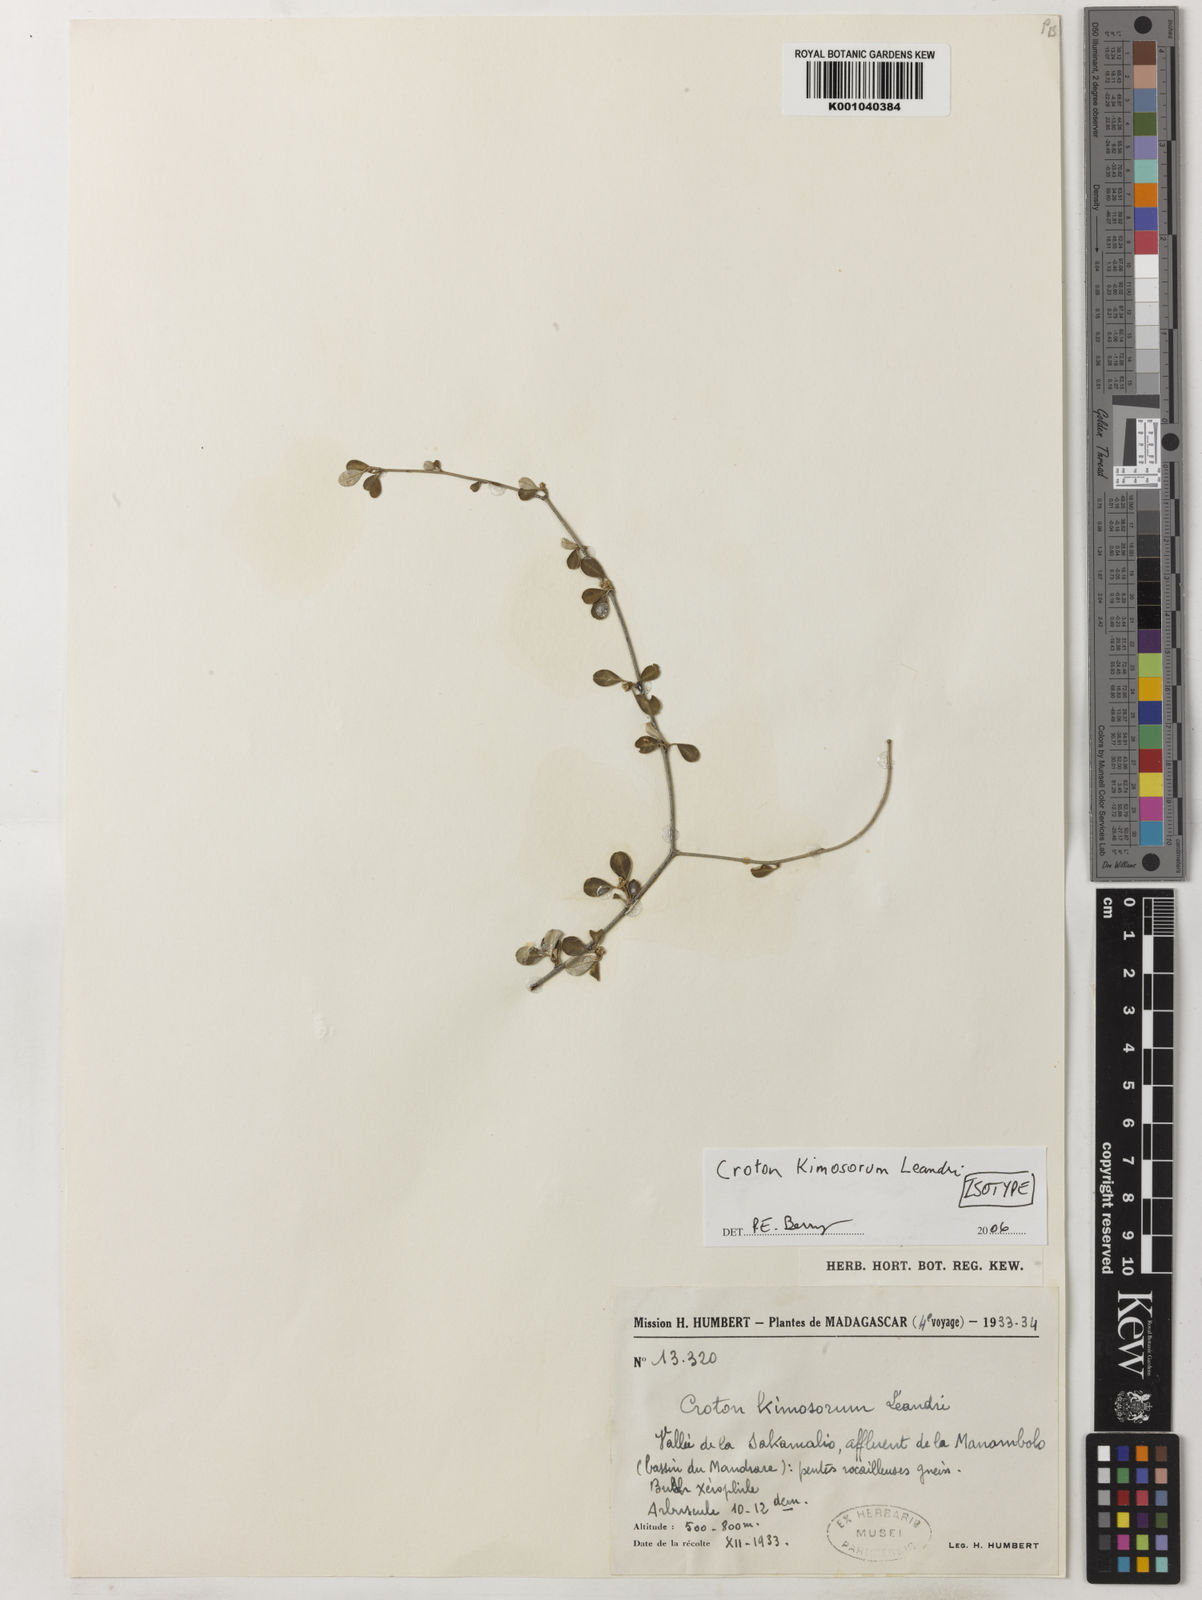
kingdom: Plantae
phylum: Tracheophyta
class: Magnoliopsida
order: Malpighiales
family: Euphorbiaceae
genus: Croton
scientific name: Croton kimosorum
